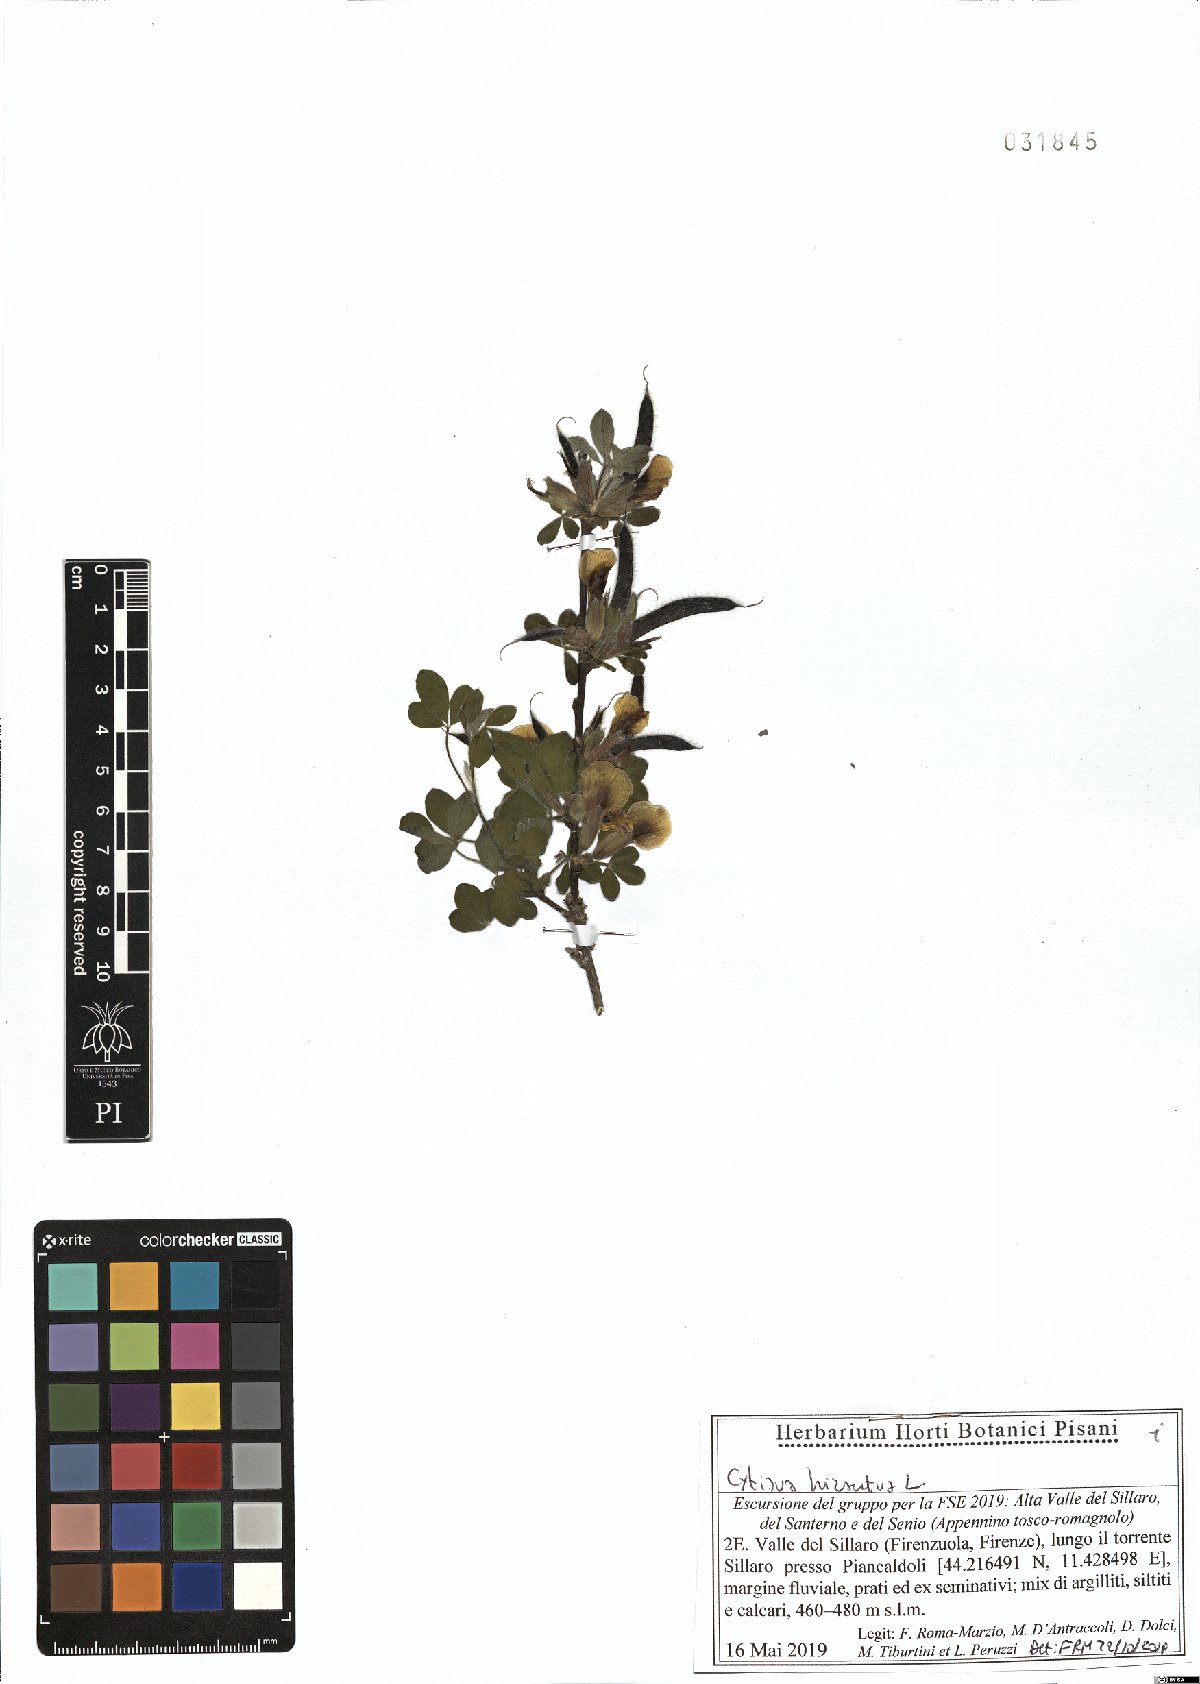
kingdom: Plantae
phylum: Tracheophyta
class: Magnoliopsida
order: Fabales
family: Fabaceae
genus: Chamaecytisus
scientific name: Chamaecytisus hirsutus
